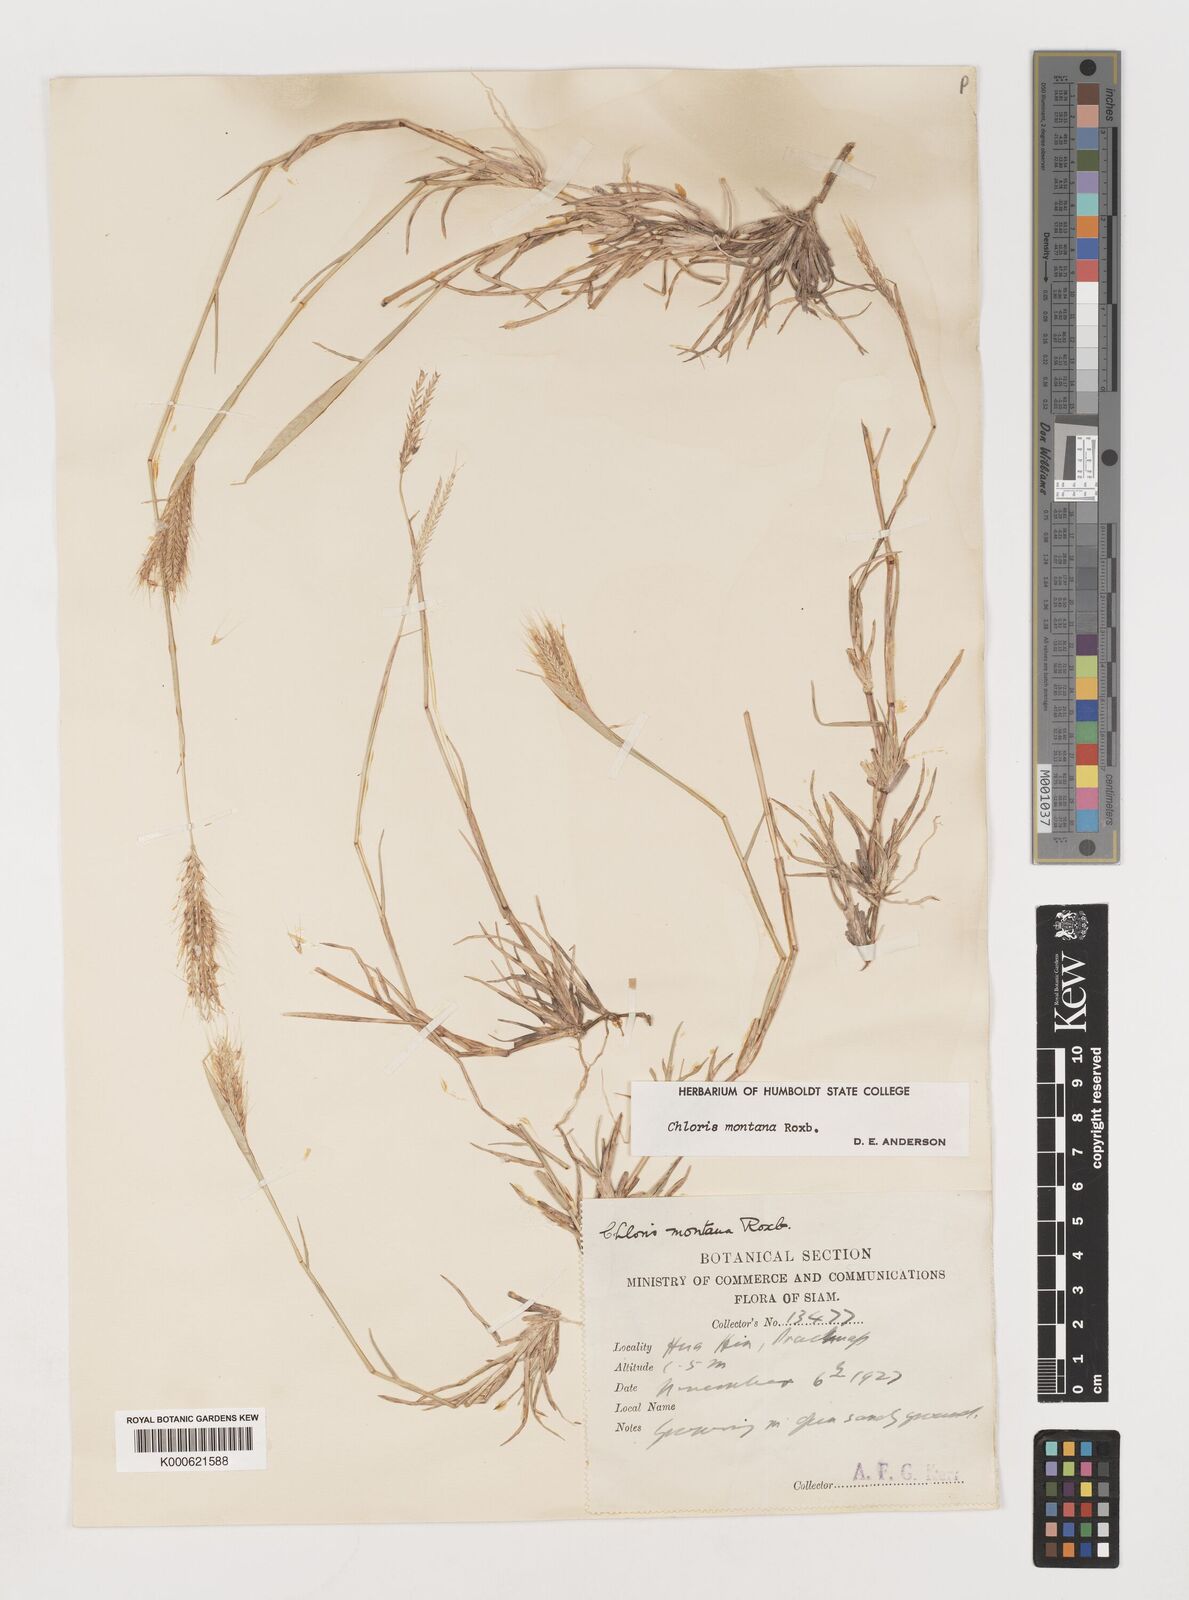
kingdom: Plantae
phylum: Tracheophyta
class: Liliopsida
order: Poales
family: Poaceae
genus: Chloris
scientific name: Chloris montana
